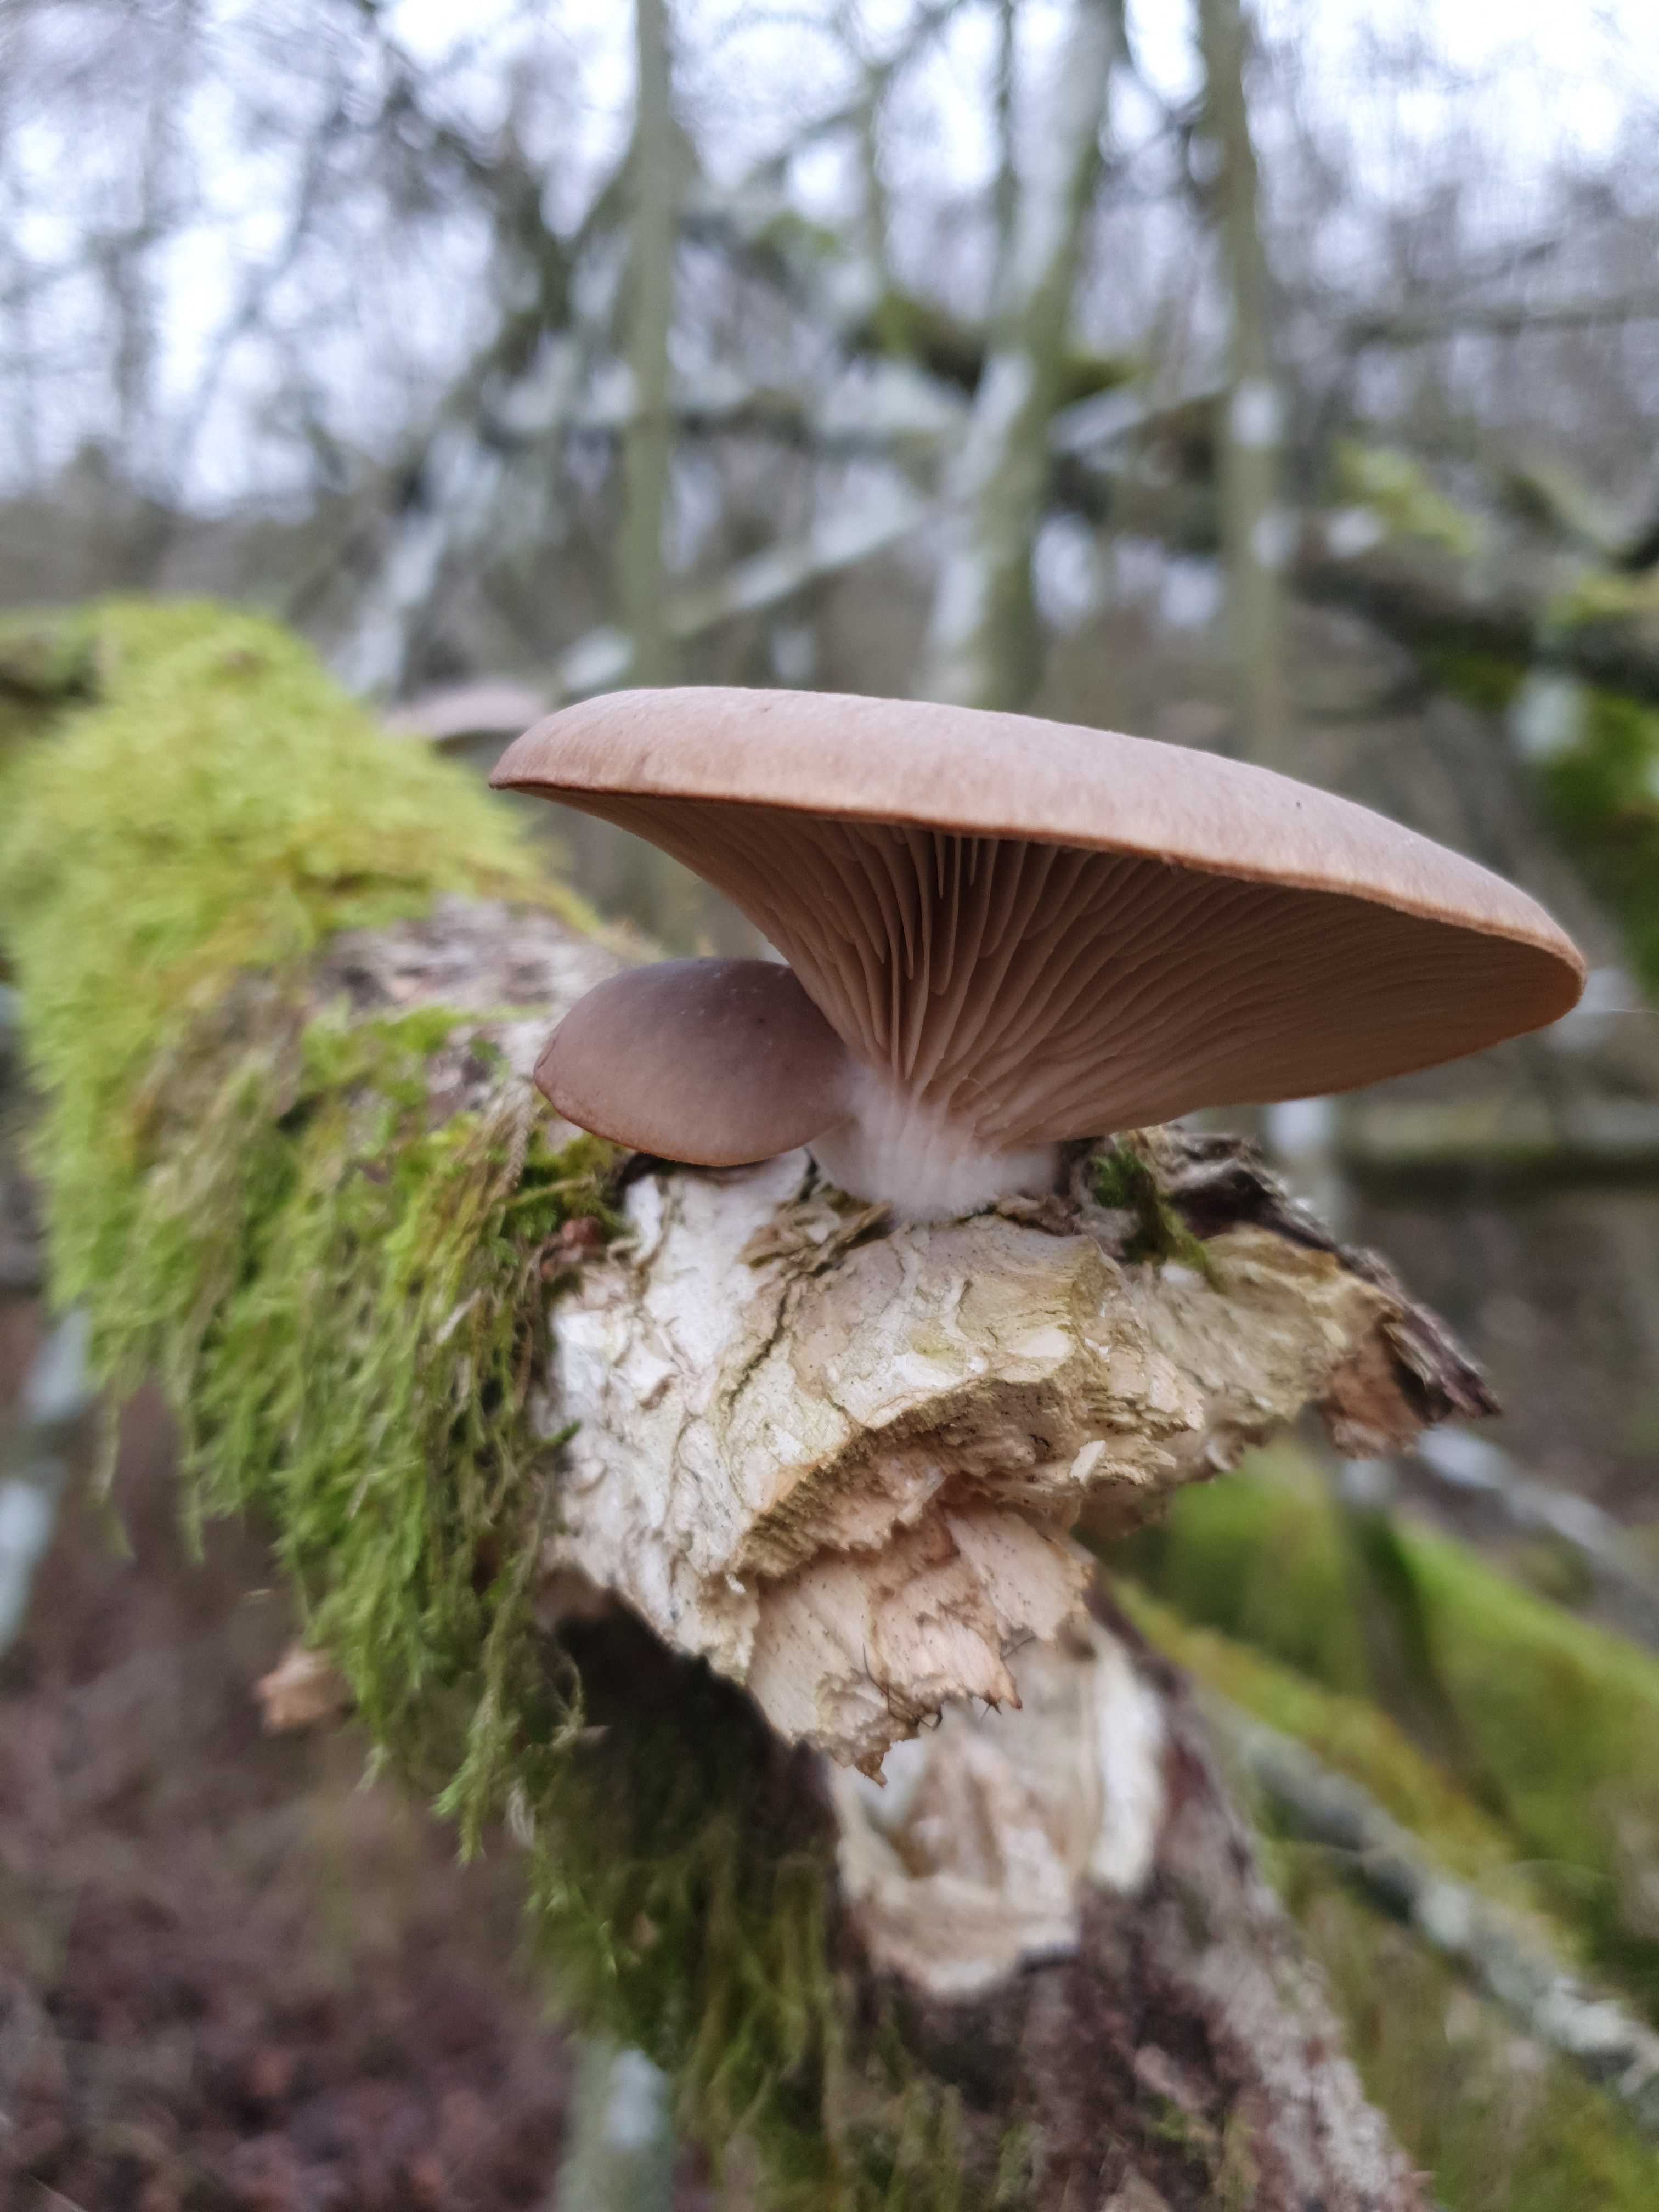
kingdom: Fungi
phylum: Basidiomycota
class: Agaricomycetes
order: Agaricales
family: Pleurotaceae
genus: Pleurotus
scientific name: Pleurotus ostreatus
